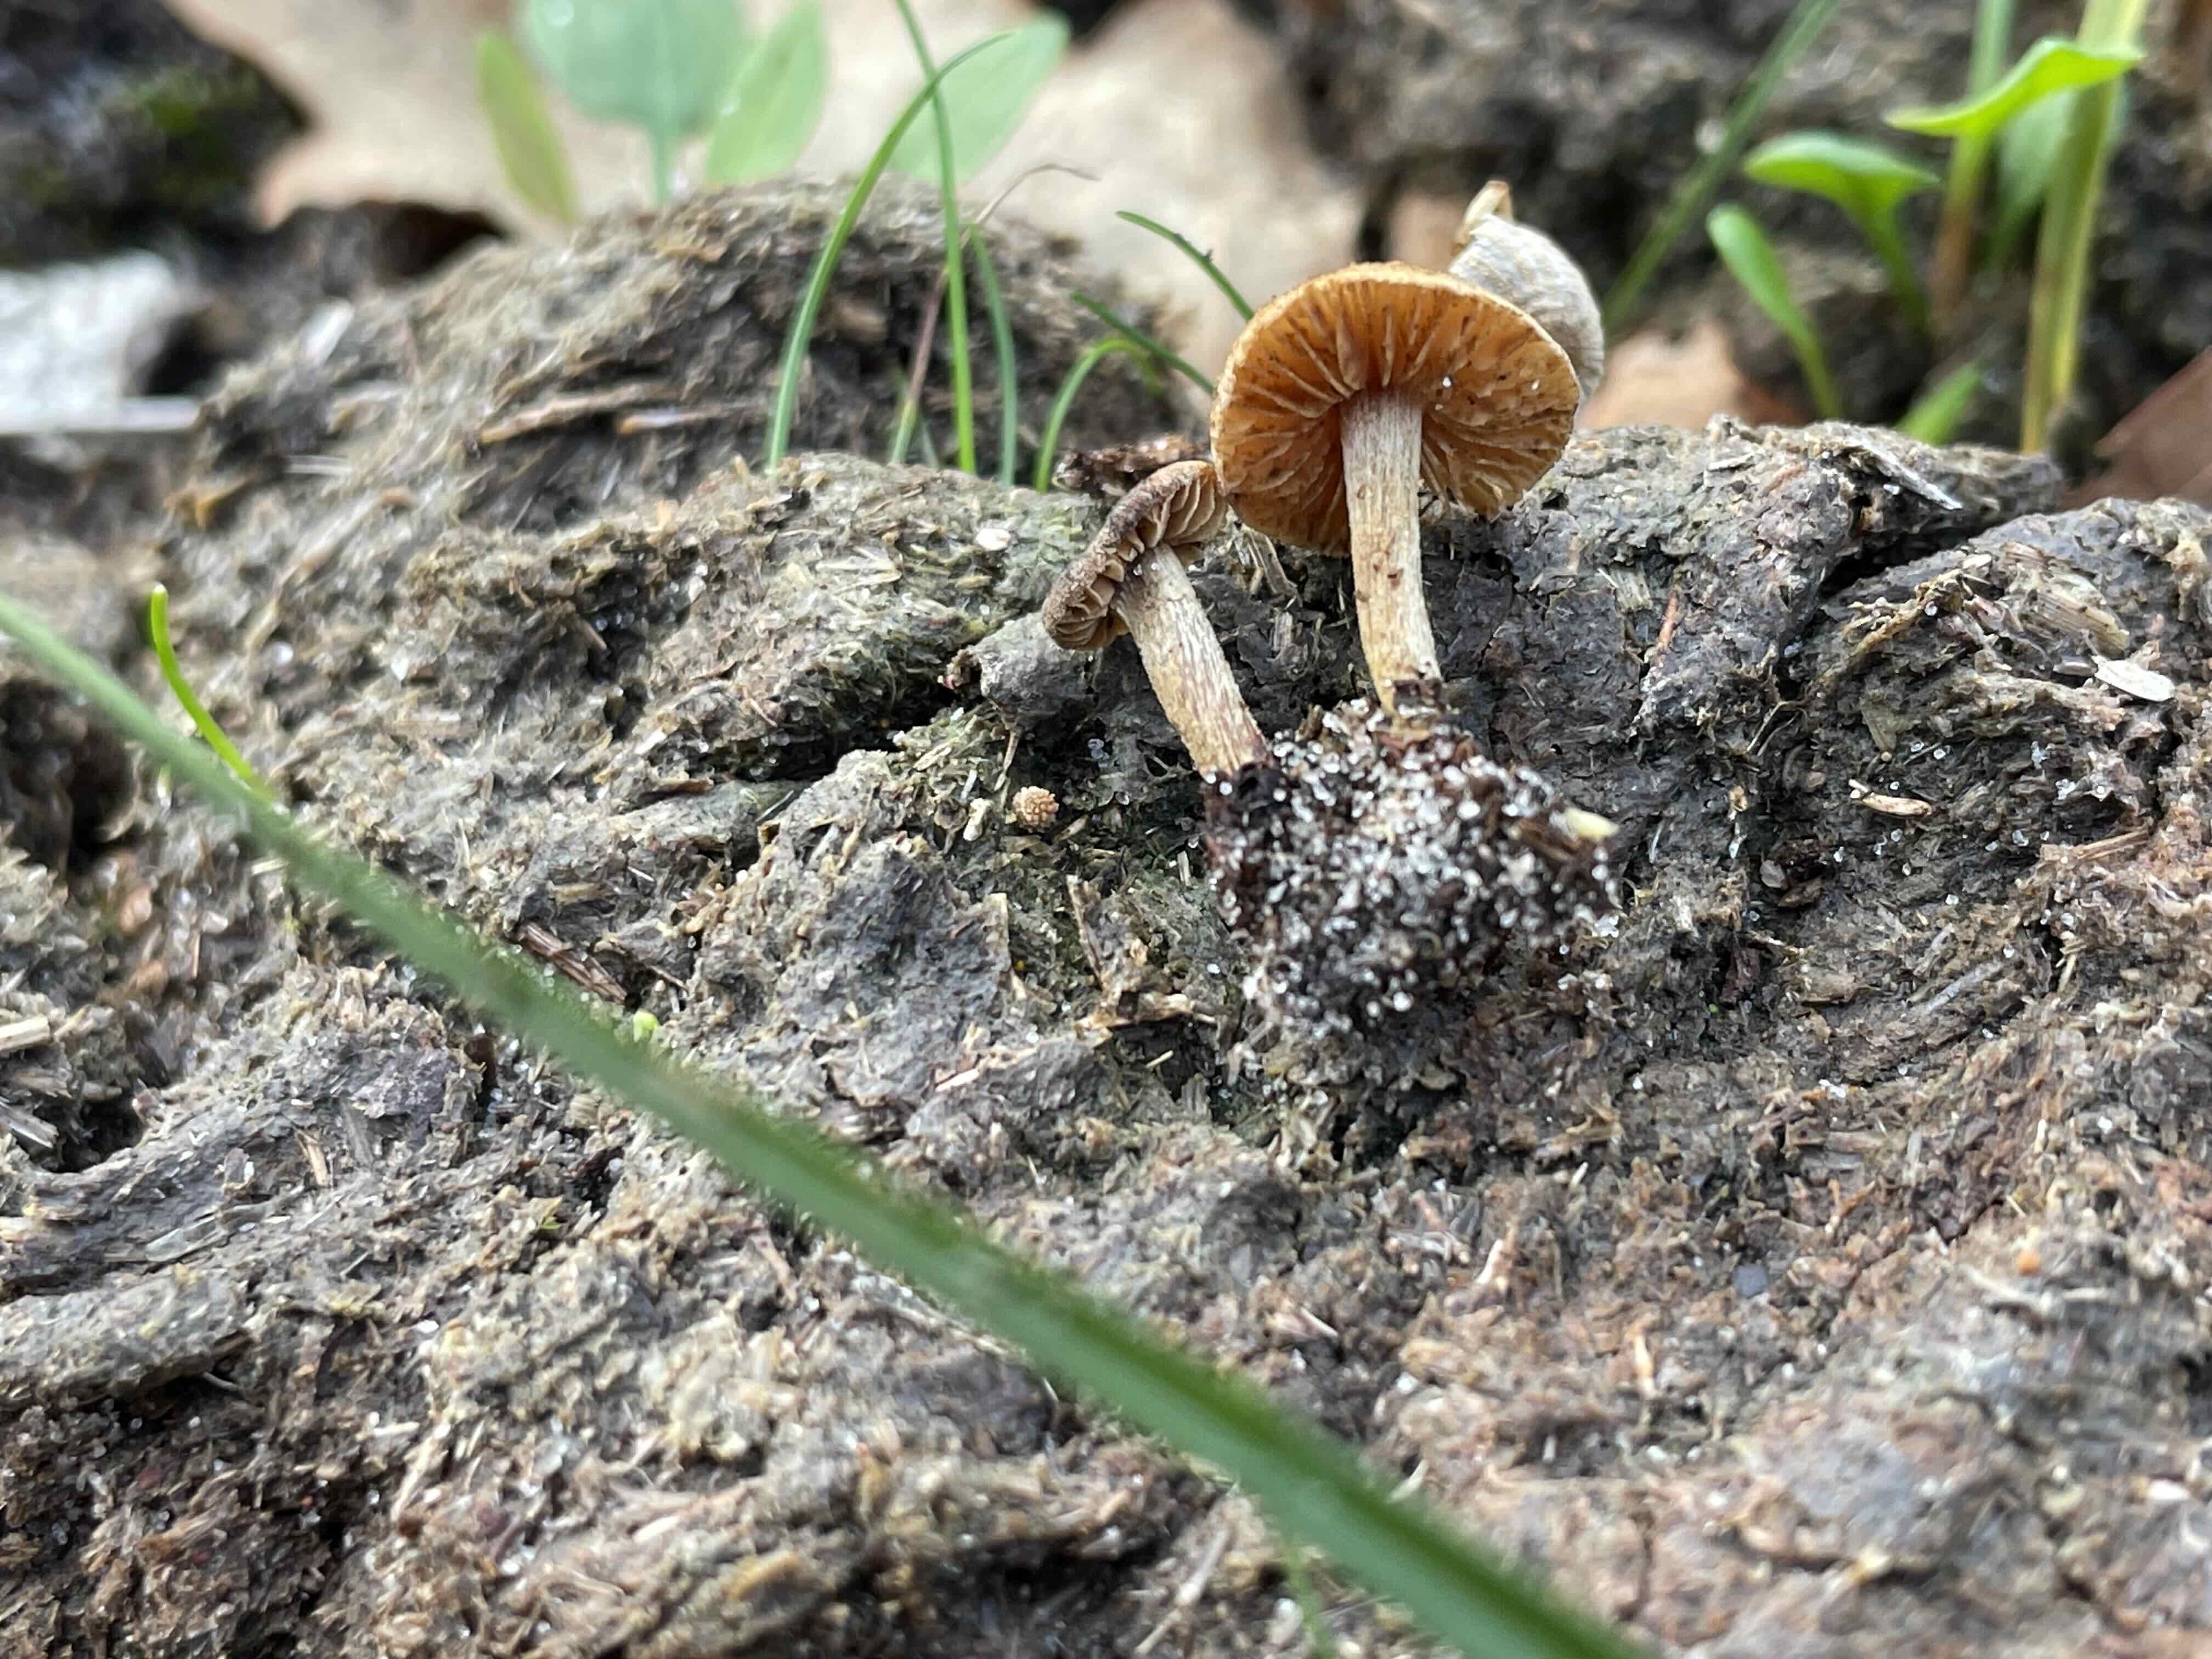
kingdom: Fungi
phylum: Basidiomycota
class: Agaricomycetes
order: Agaricales
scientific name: Agaricales
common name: champignonordenen
